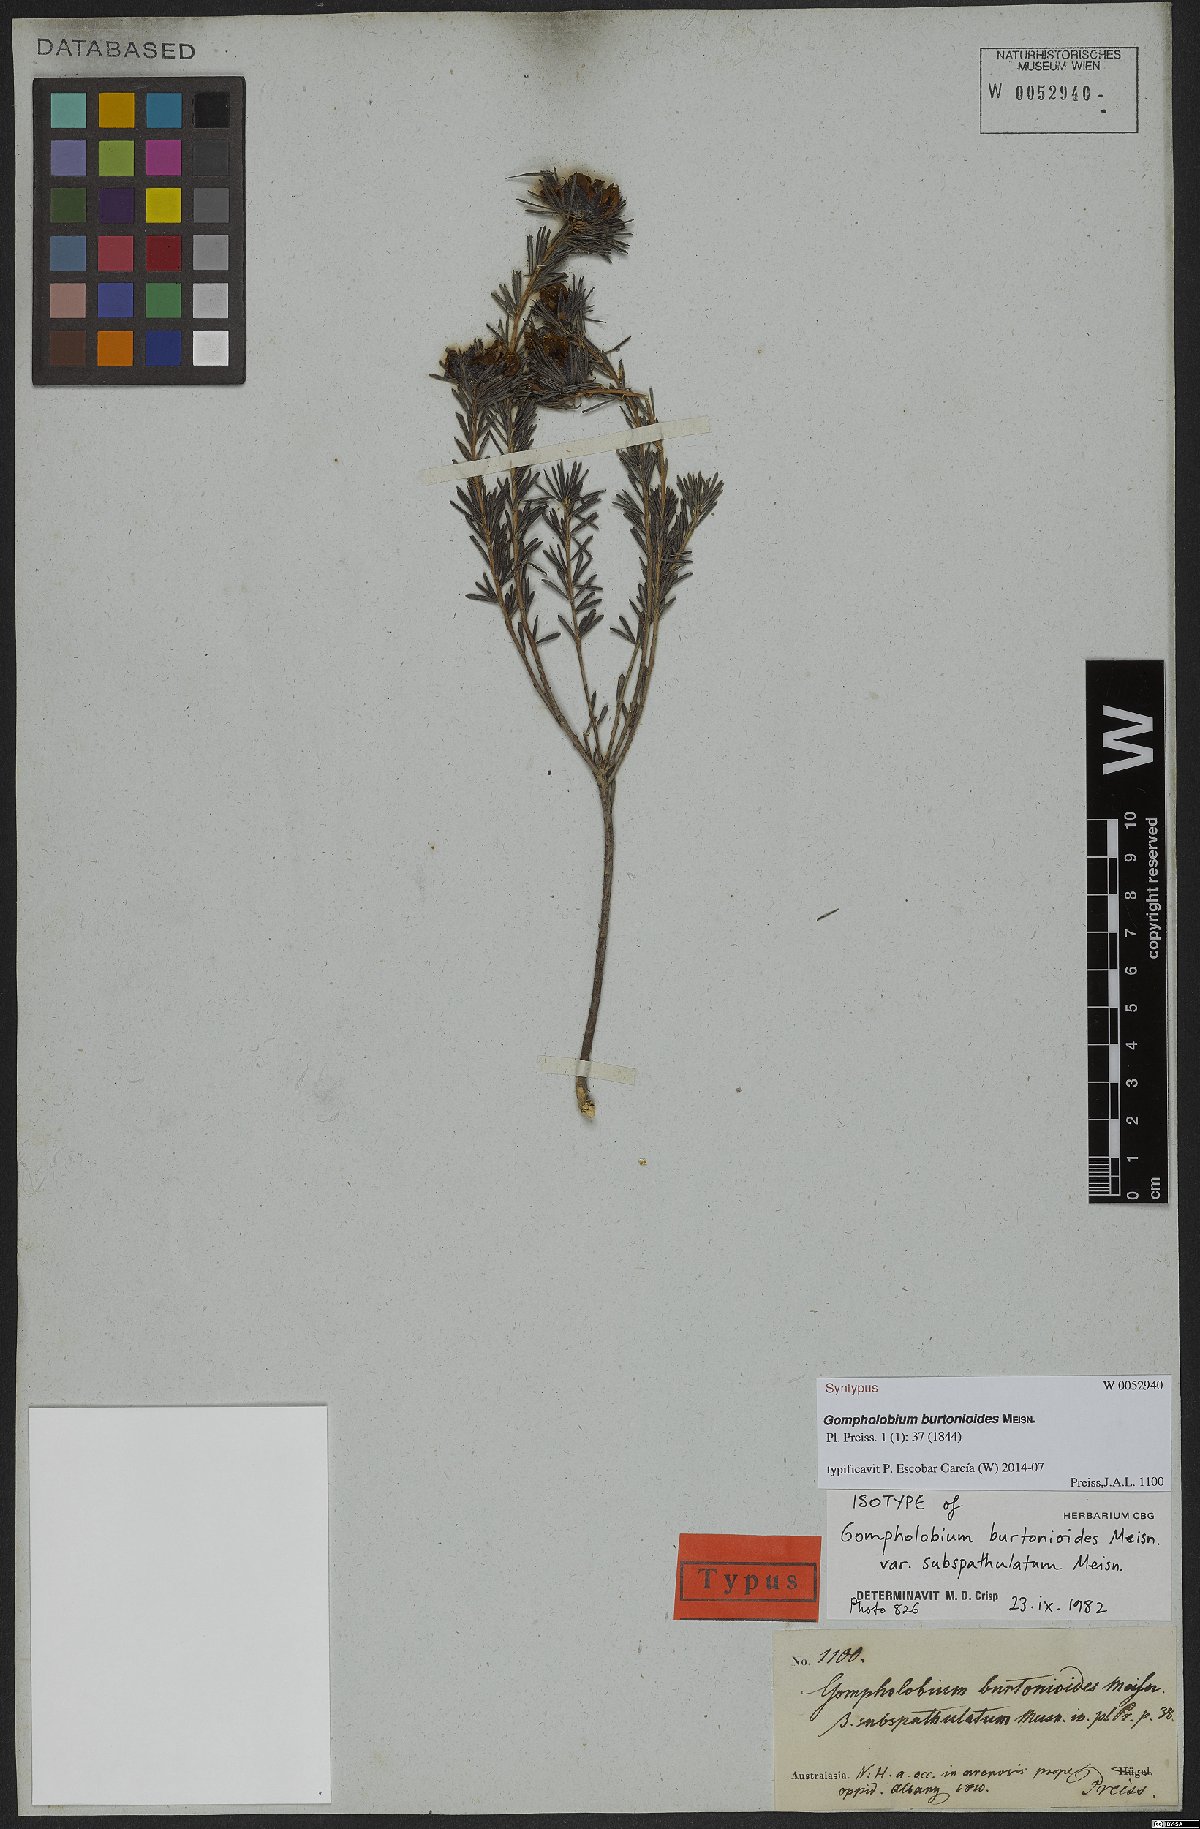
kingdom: Plantae
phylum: Tracheophyta
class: Magnoliopsida
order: Fabales
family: Fabaceae
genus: Gompholobium
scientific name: Gompholobium burtonioides
